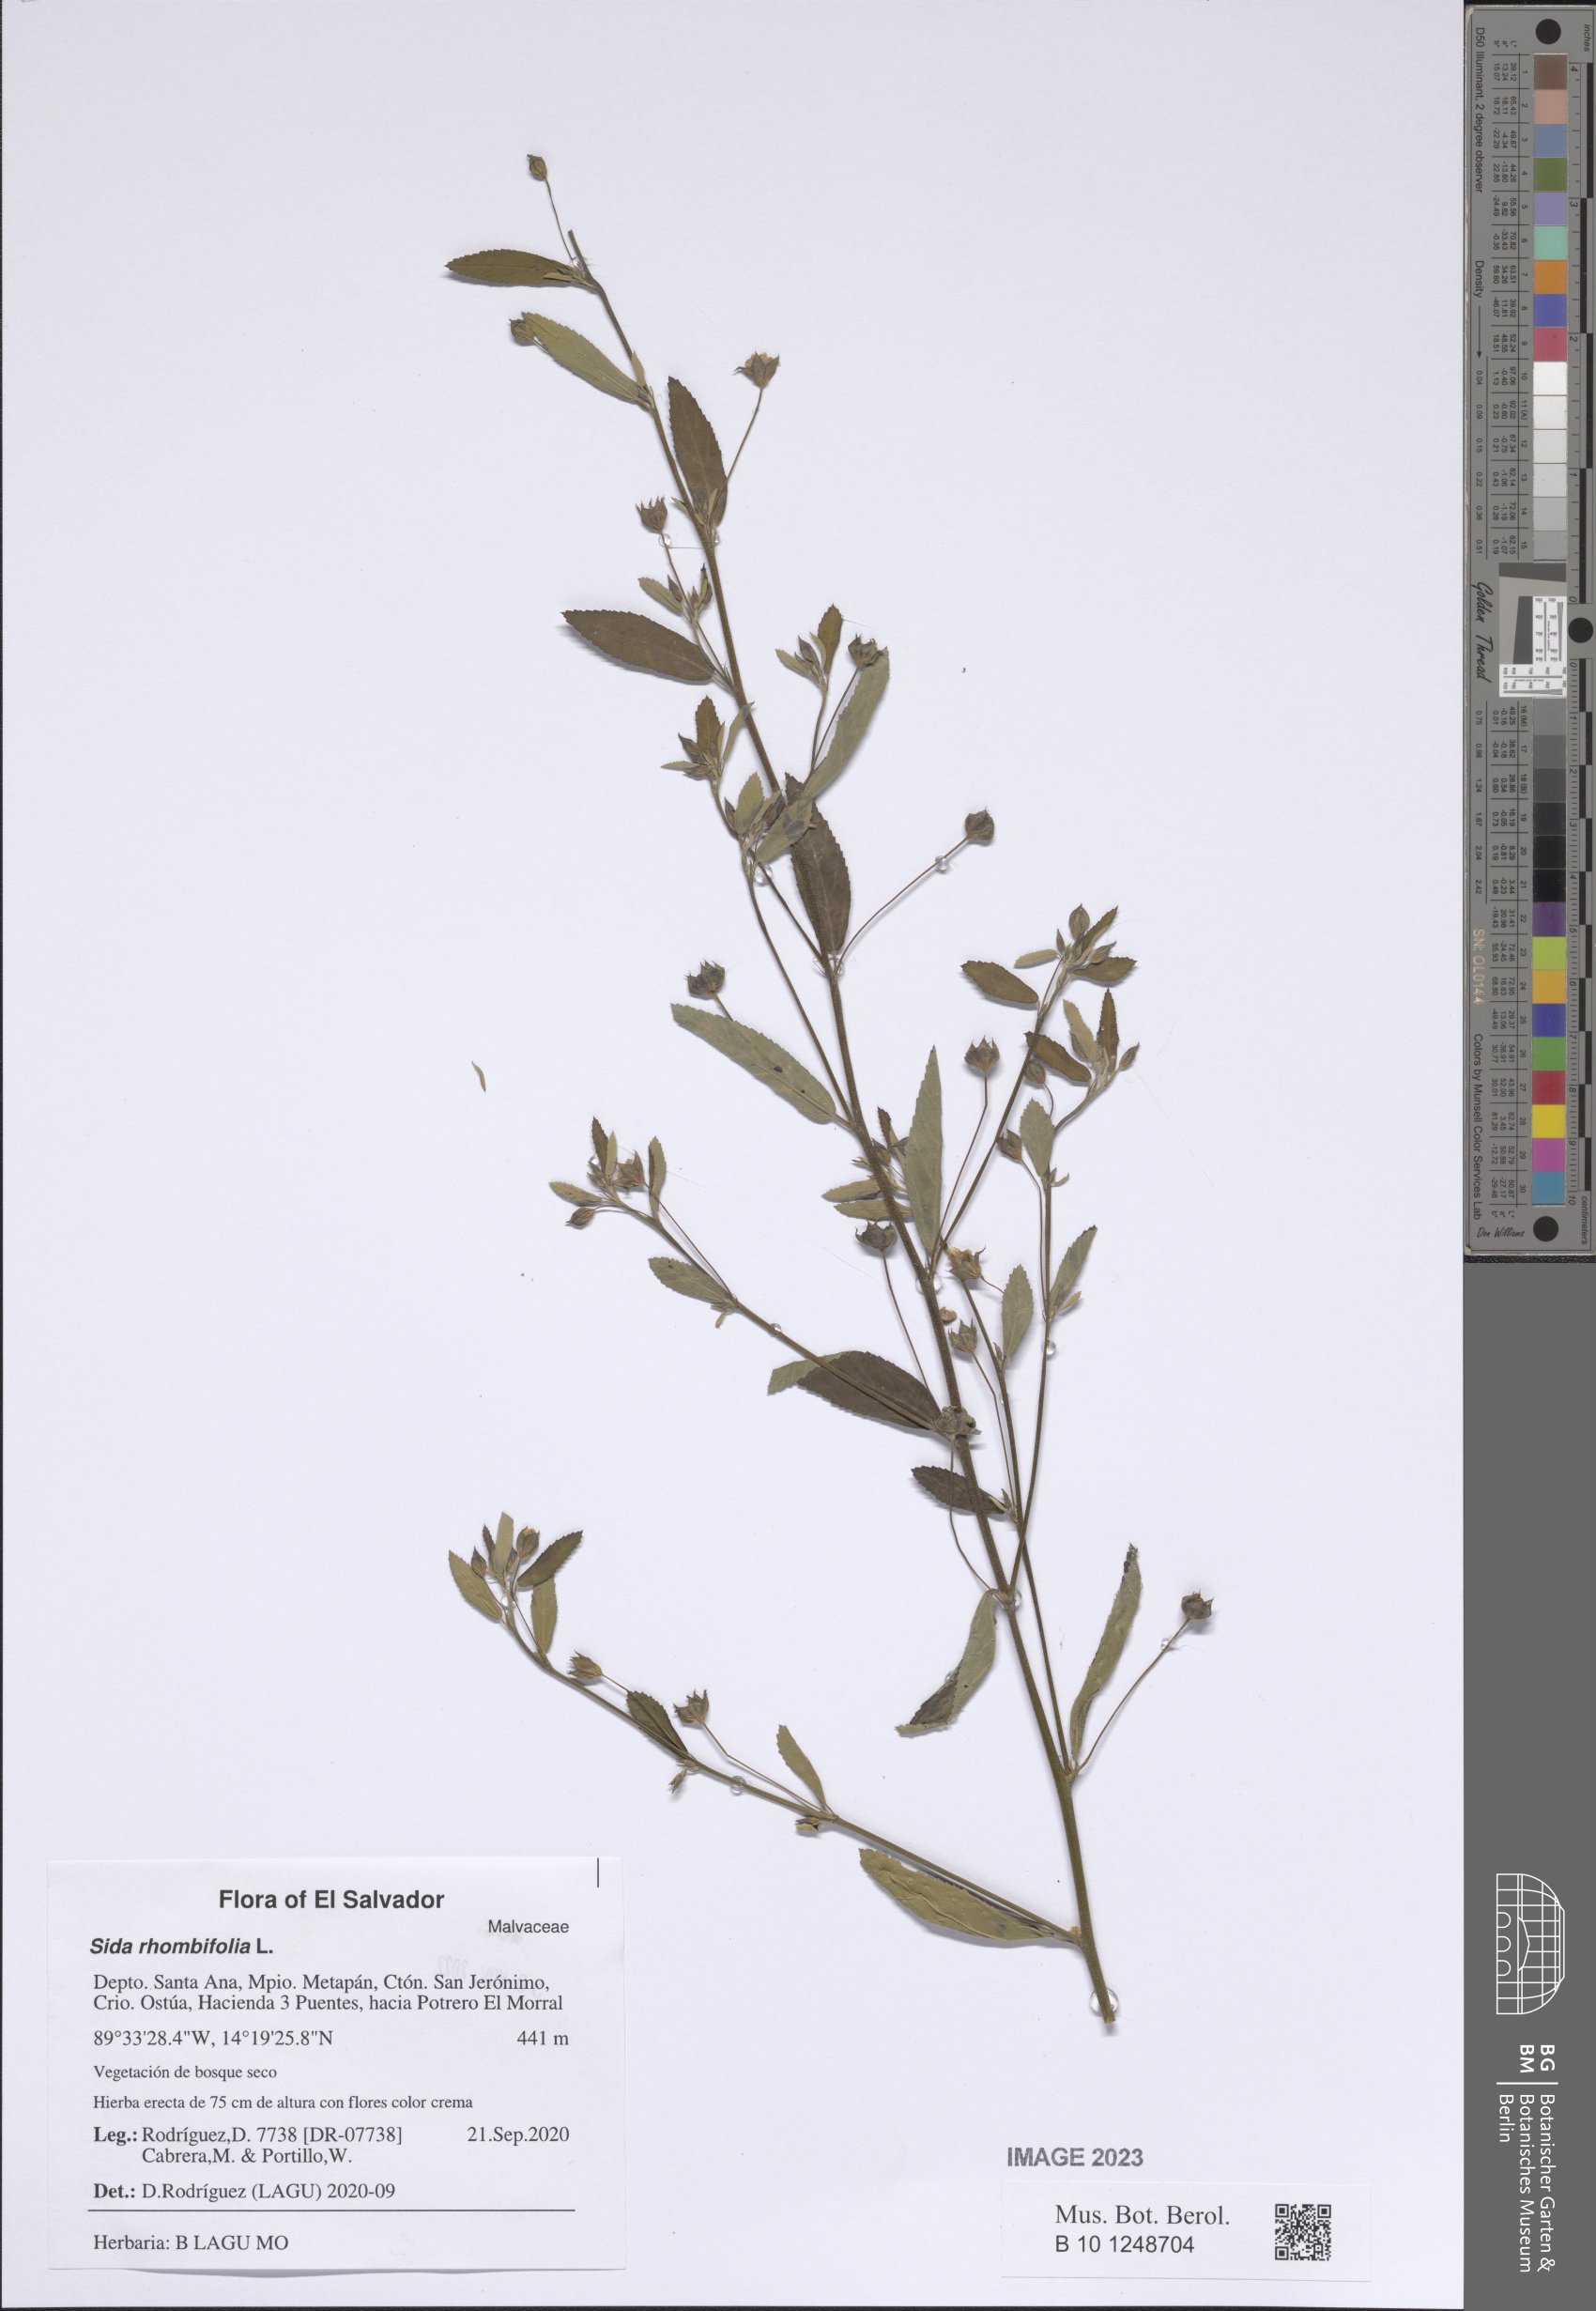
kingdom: Plantae
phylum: Tracheophyta
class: Magnoliopsida
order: Malvales
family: Malvaceae
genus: Sida
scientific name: Sida rhombifolia
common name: Queensland-hemp
